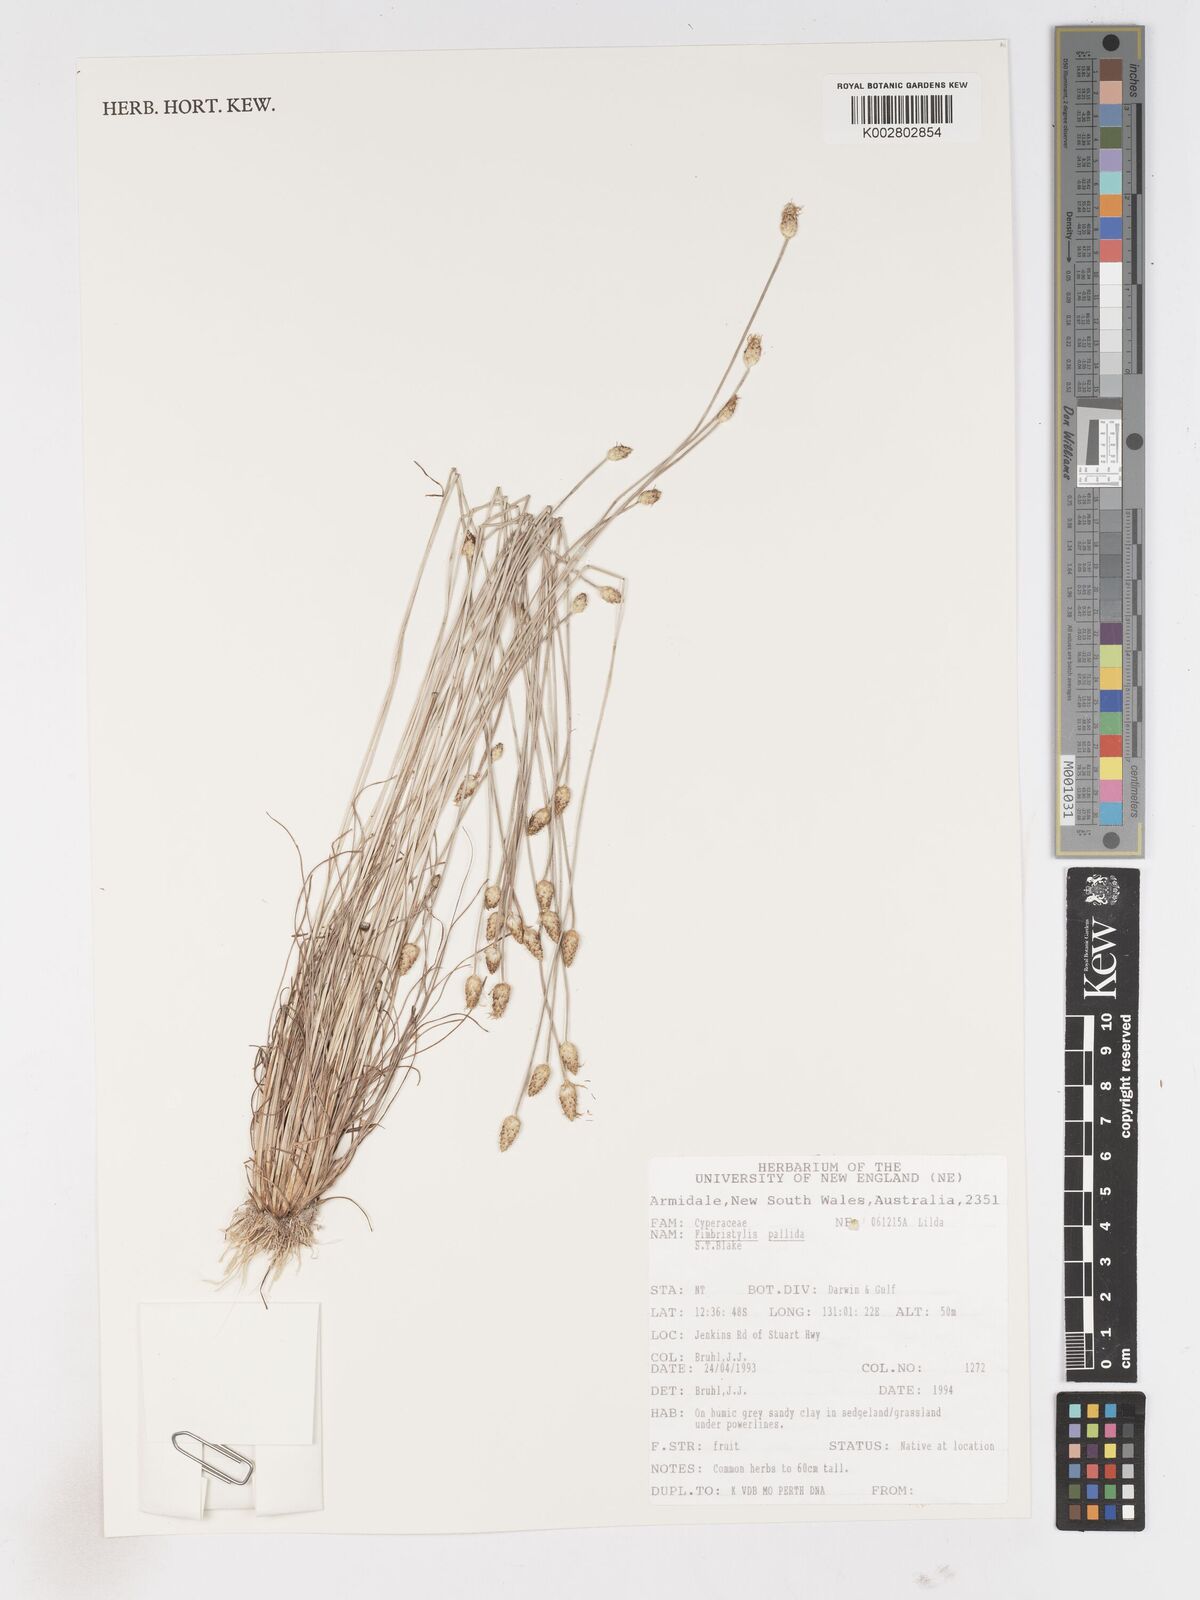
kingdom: Plantae
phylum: Tracheophyta
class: Liliopsida
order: Poales
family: Cyperaceae
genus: Fimbristylis
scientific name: Fimbristylis pallida
